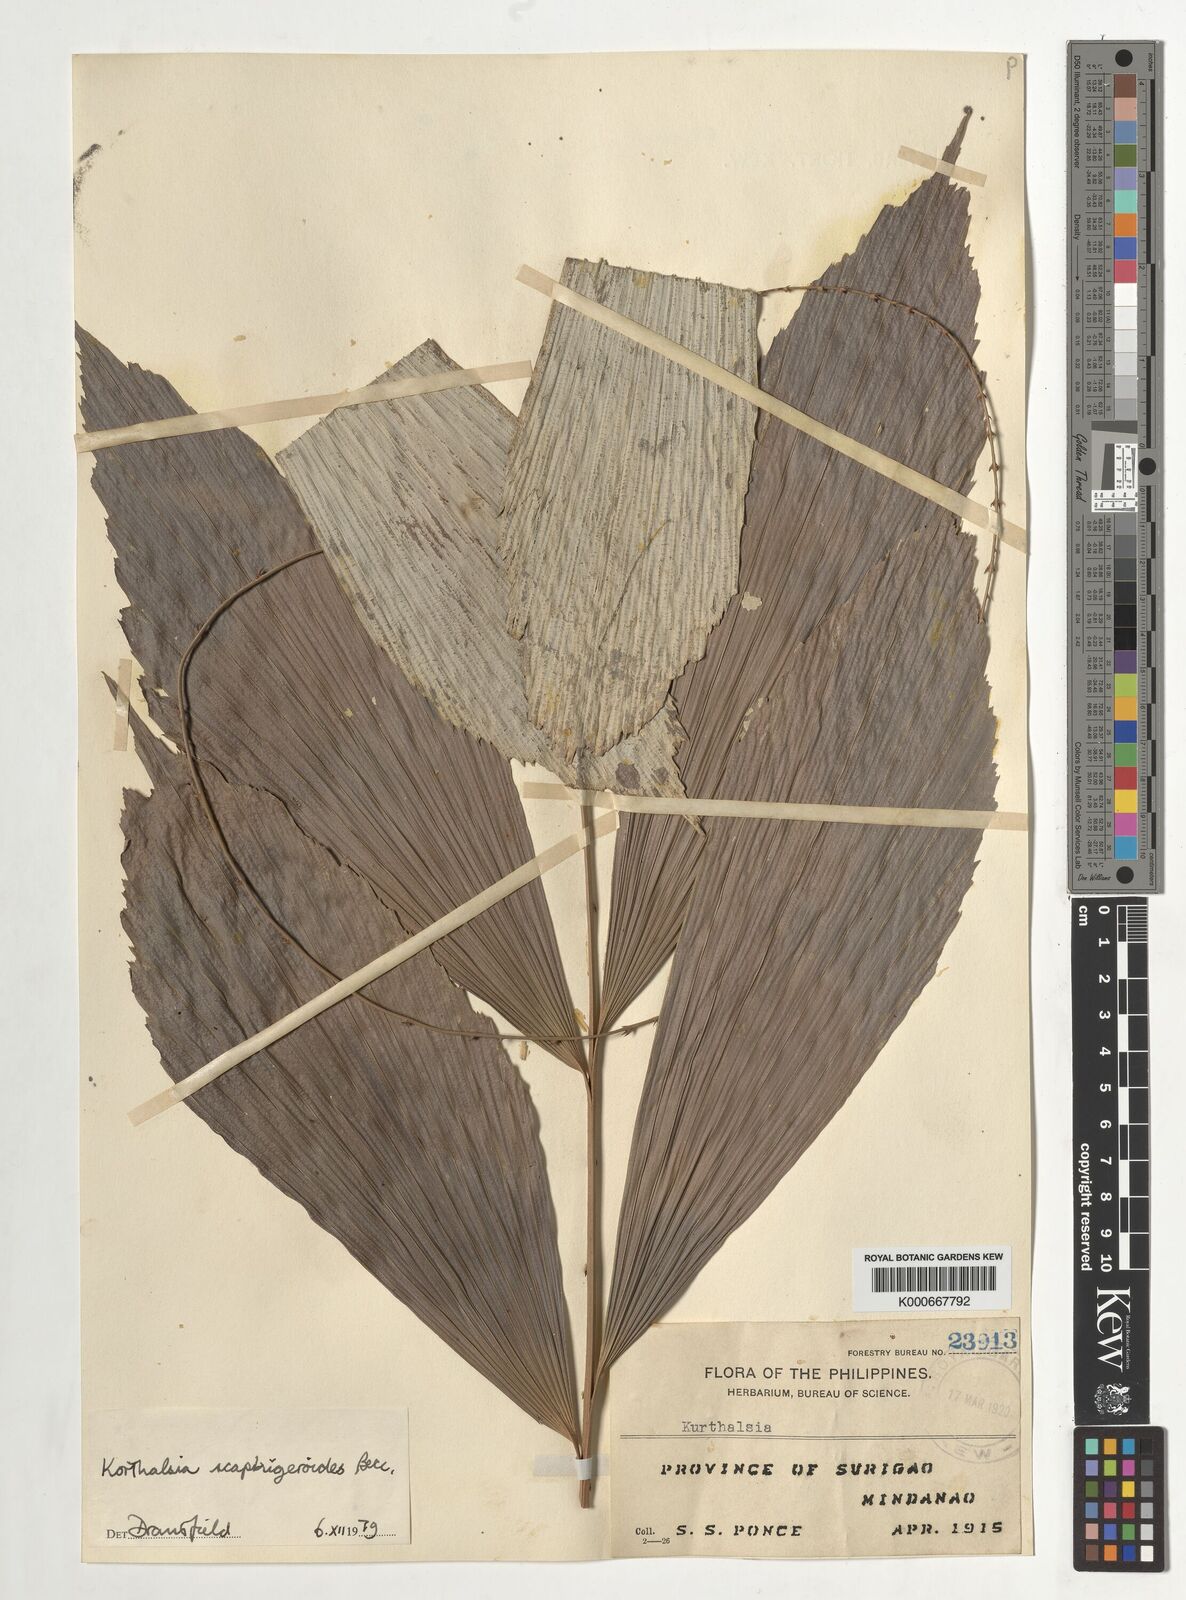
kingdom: Plantae
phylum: Tracheophyta
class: Liliopsida
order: Arecales
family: Arecaceae
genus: Korthalsia
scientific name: Korthalsia scaphigeroides
